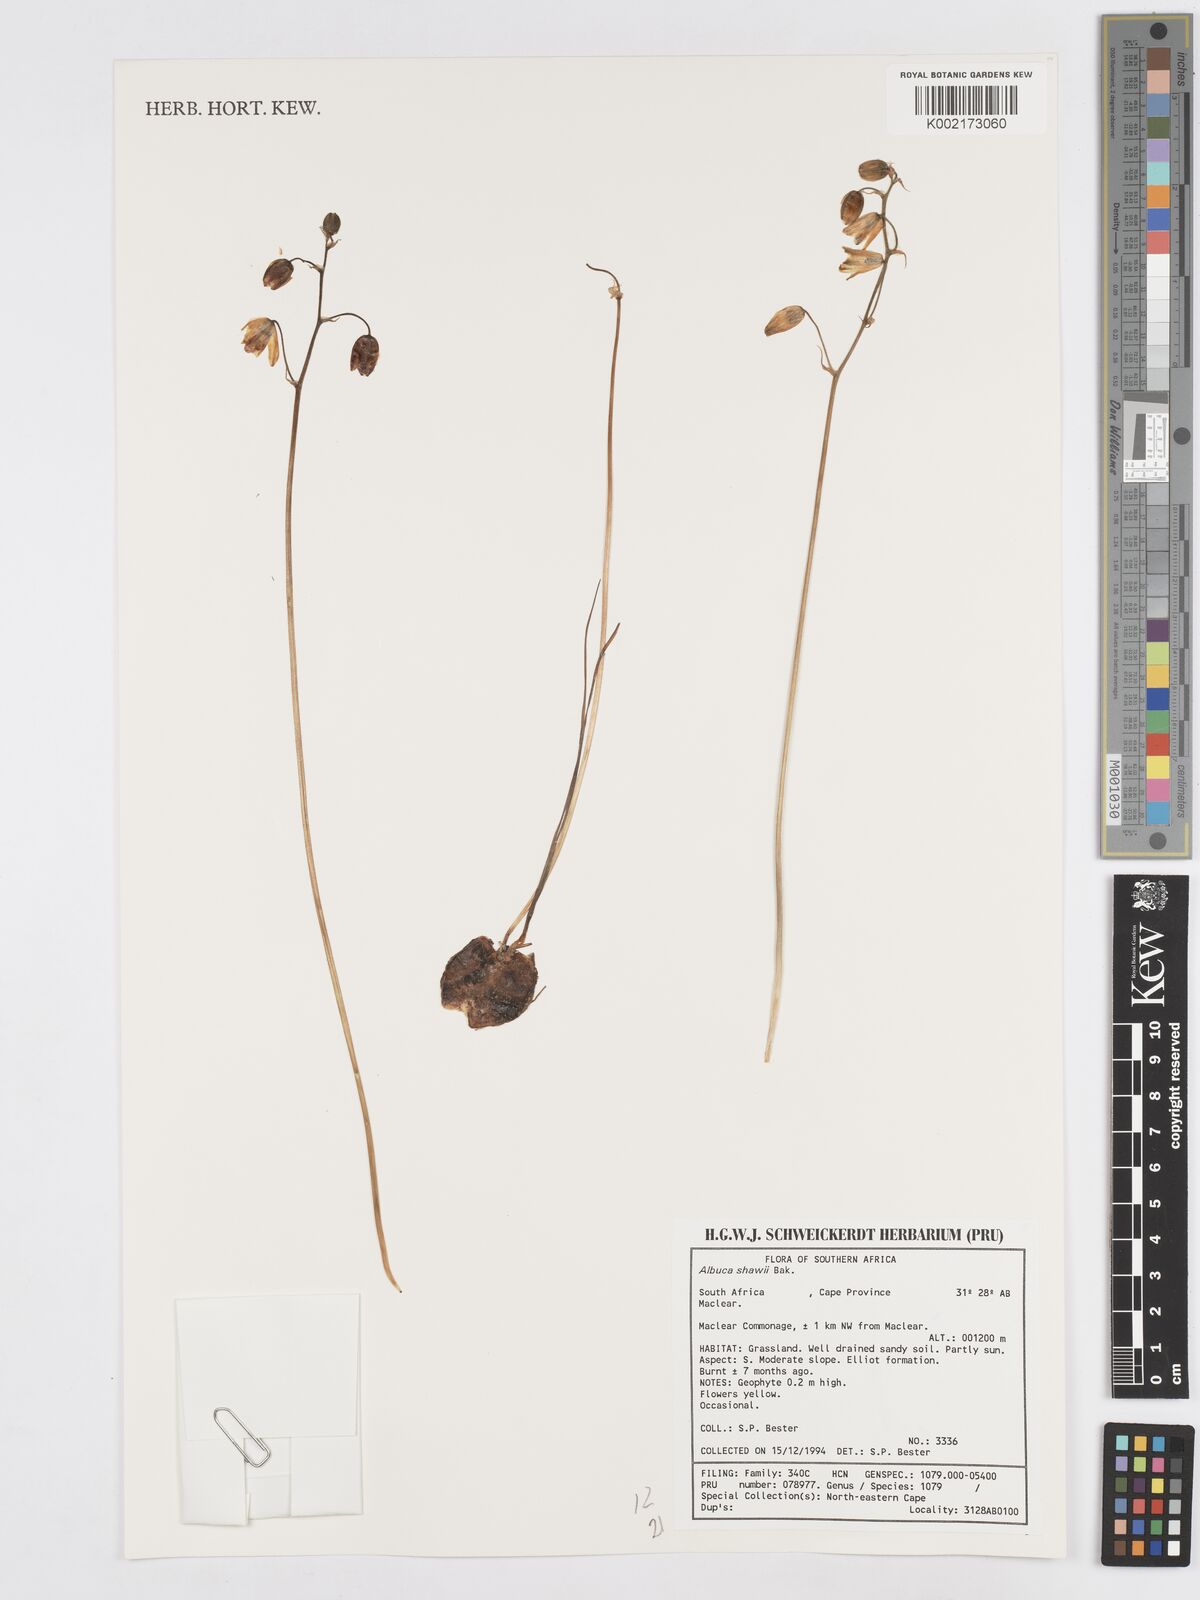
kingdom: Plantae
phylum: Tracheophyta
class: Liliopsida
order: Asparagales
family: Asparagaceae
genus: Albuca
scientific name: Albuca shawii
